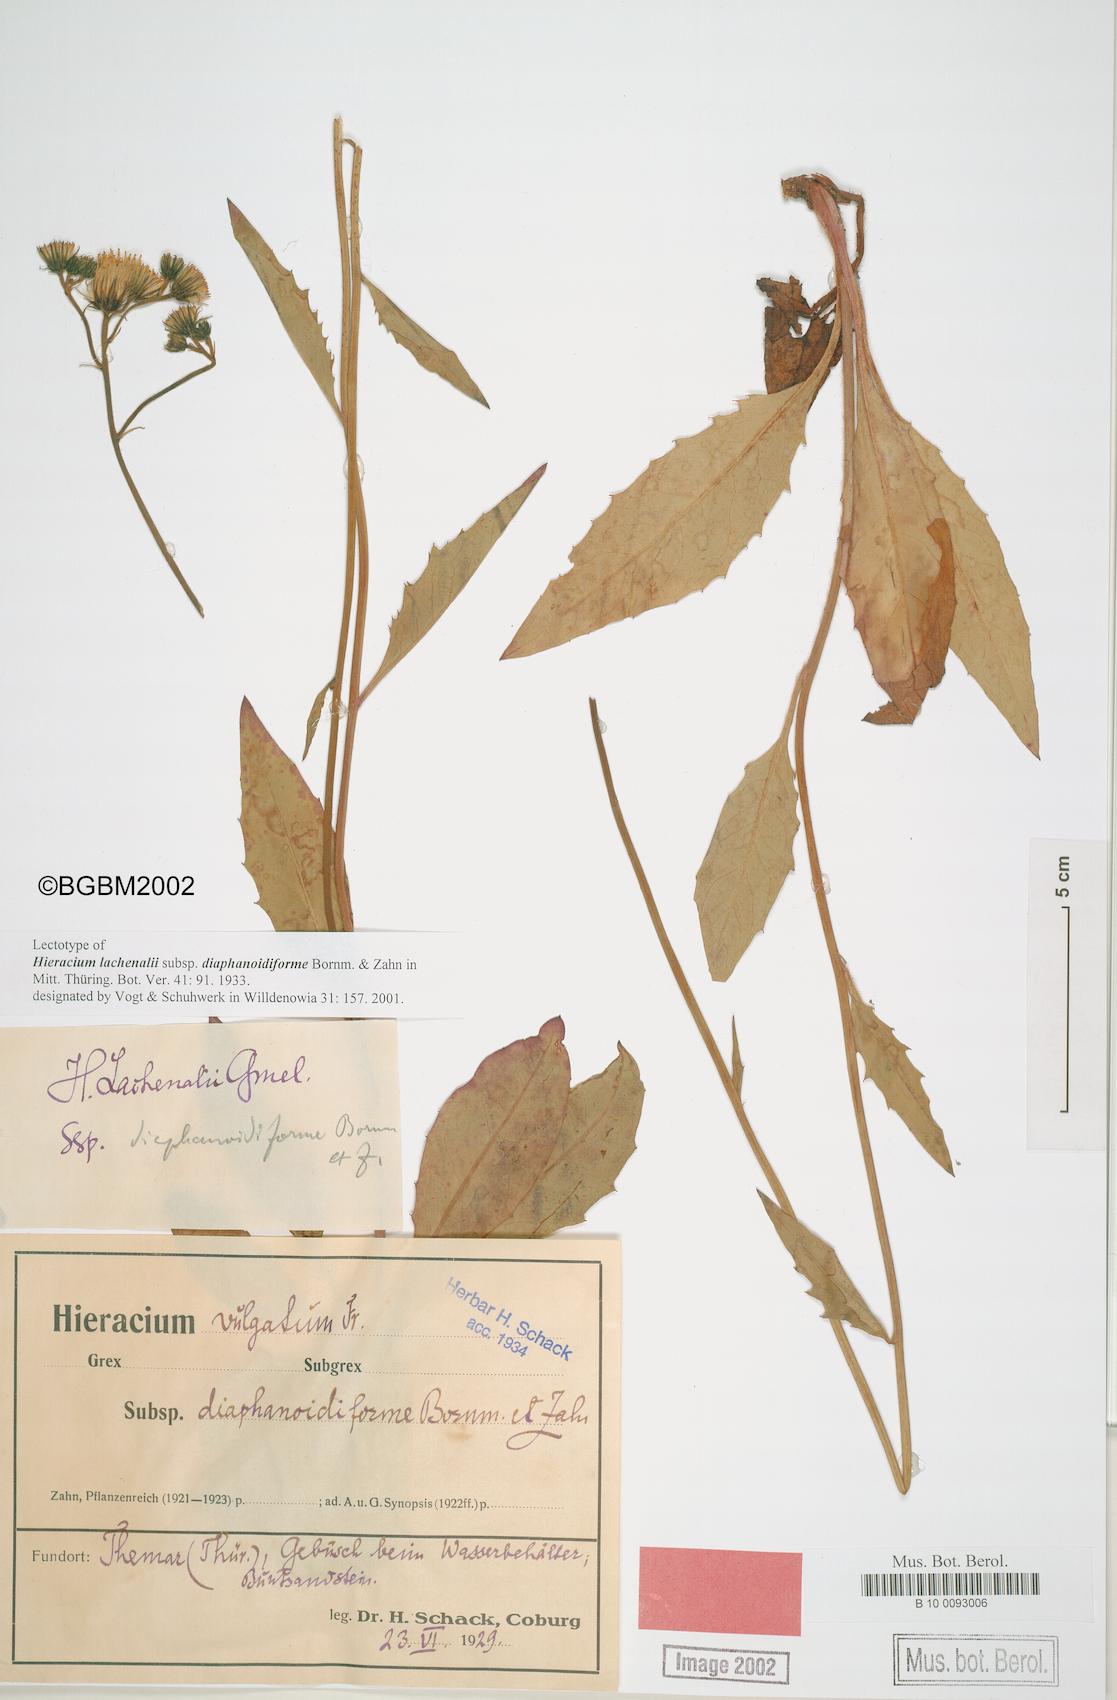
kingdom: Plantae
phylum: Tracheophyta
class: Magnoliopsida
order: Asterales
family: Asteraceae
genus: Hieracium
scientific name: Hieracium lachenalii
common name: Common hawkweed
